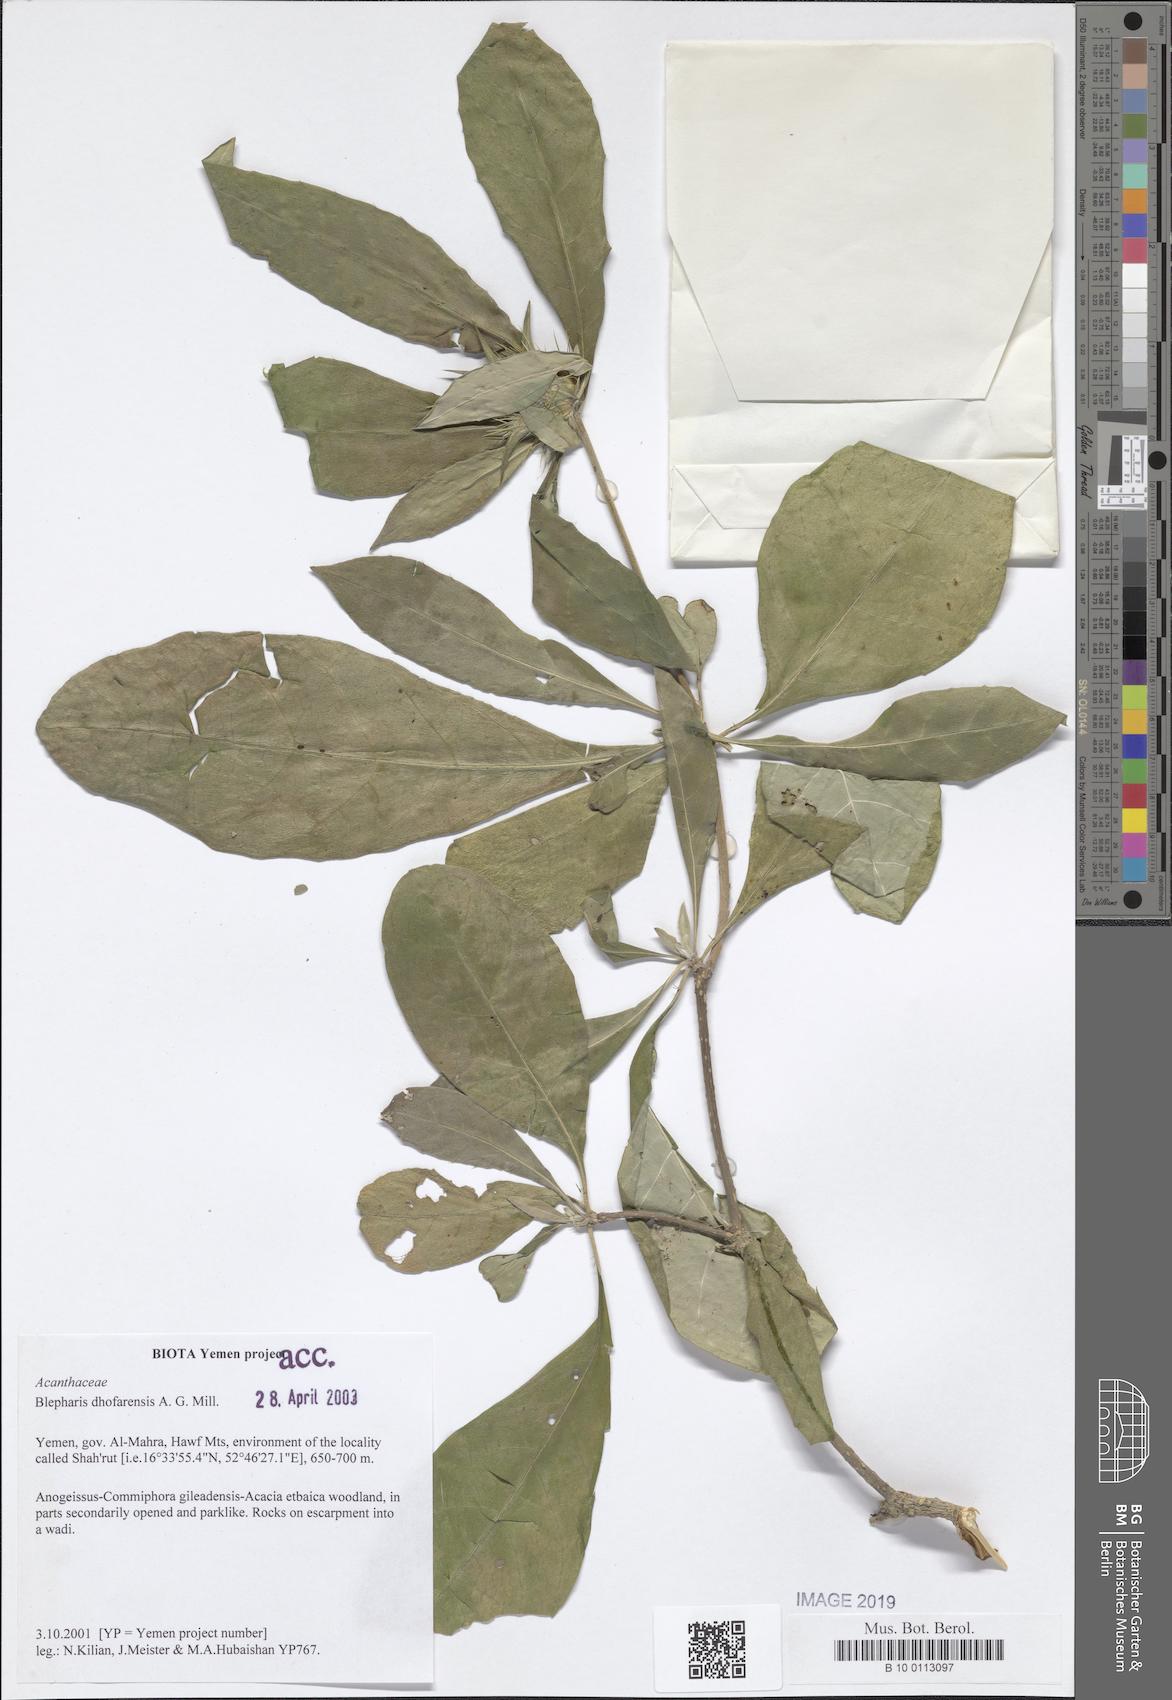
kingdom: Plantae
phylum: Tracheophyta
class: Magnoliopsida
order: Lamiales
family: Acanthaceae
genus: Blepharis
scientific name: Blepharis dhofarensis
